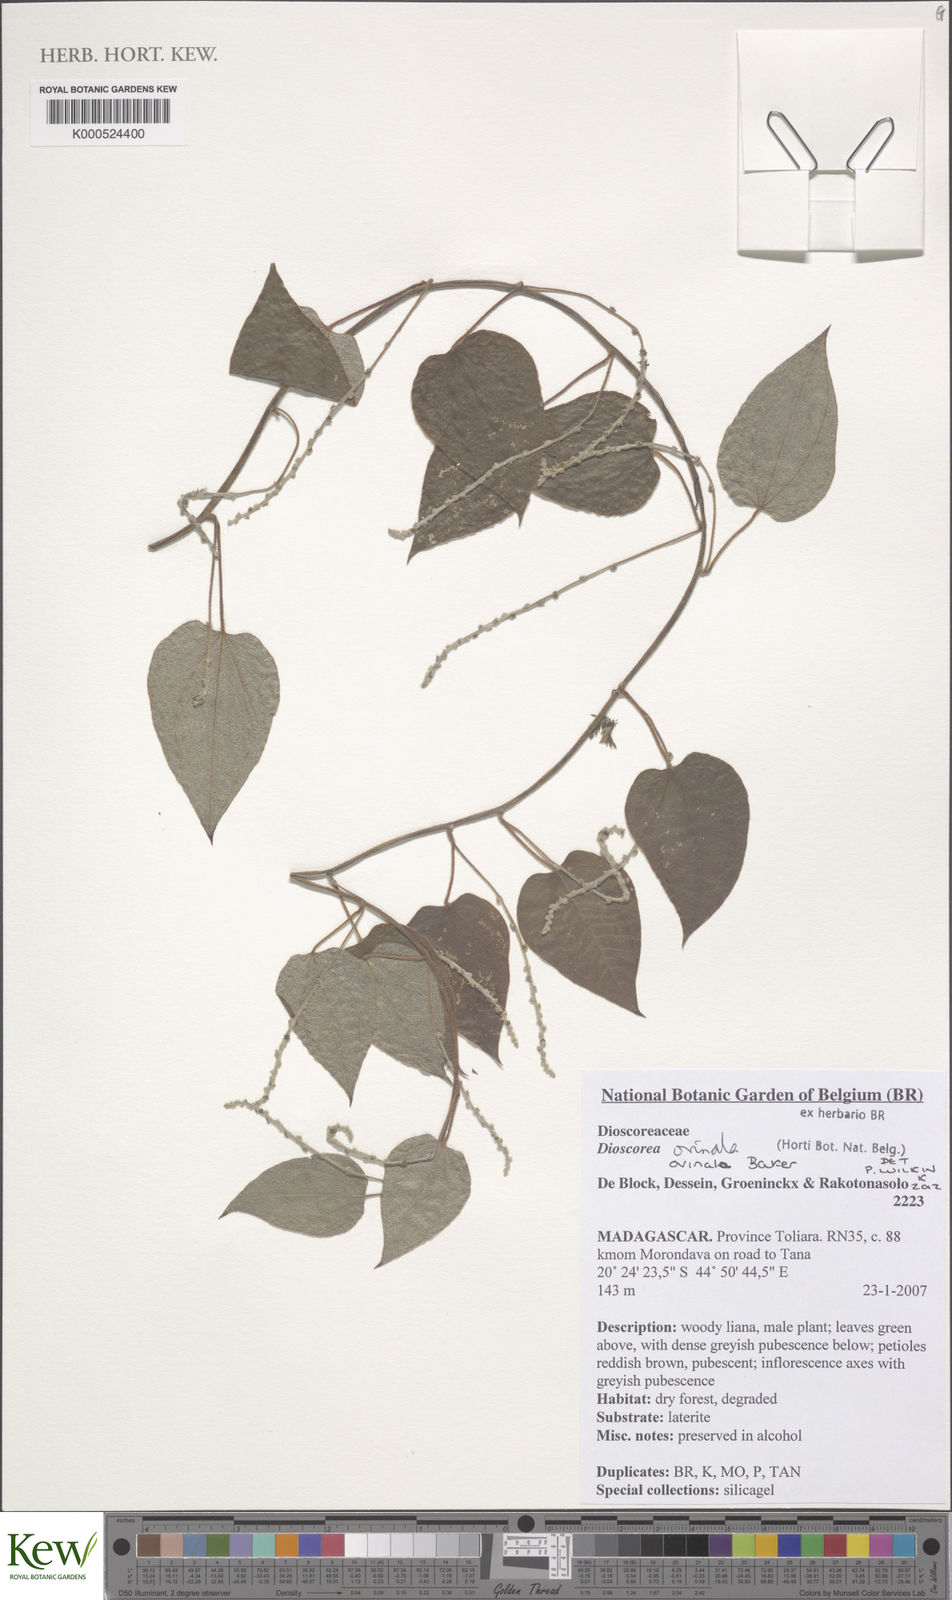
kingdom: Plantae
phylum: Tracheophyta
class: Liliopsida
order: Dioscoreales
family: Dioscoreaceae
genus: Dioscorea
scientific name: Dioscorea ovinala
